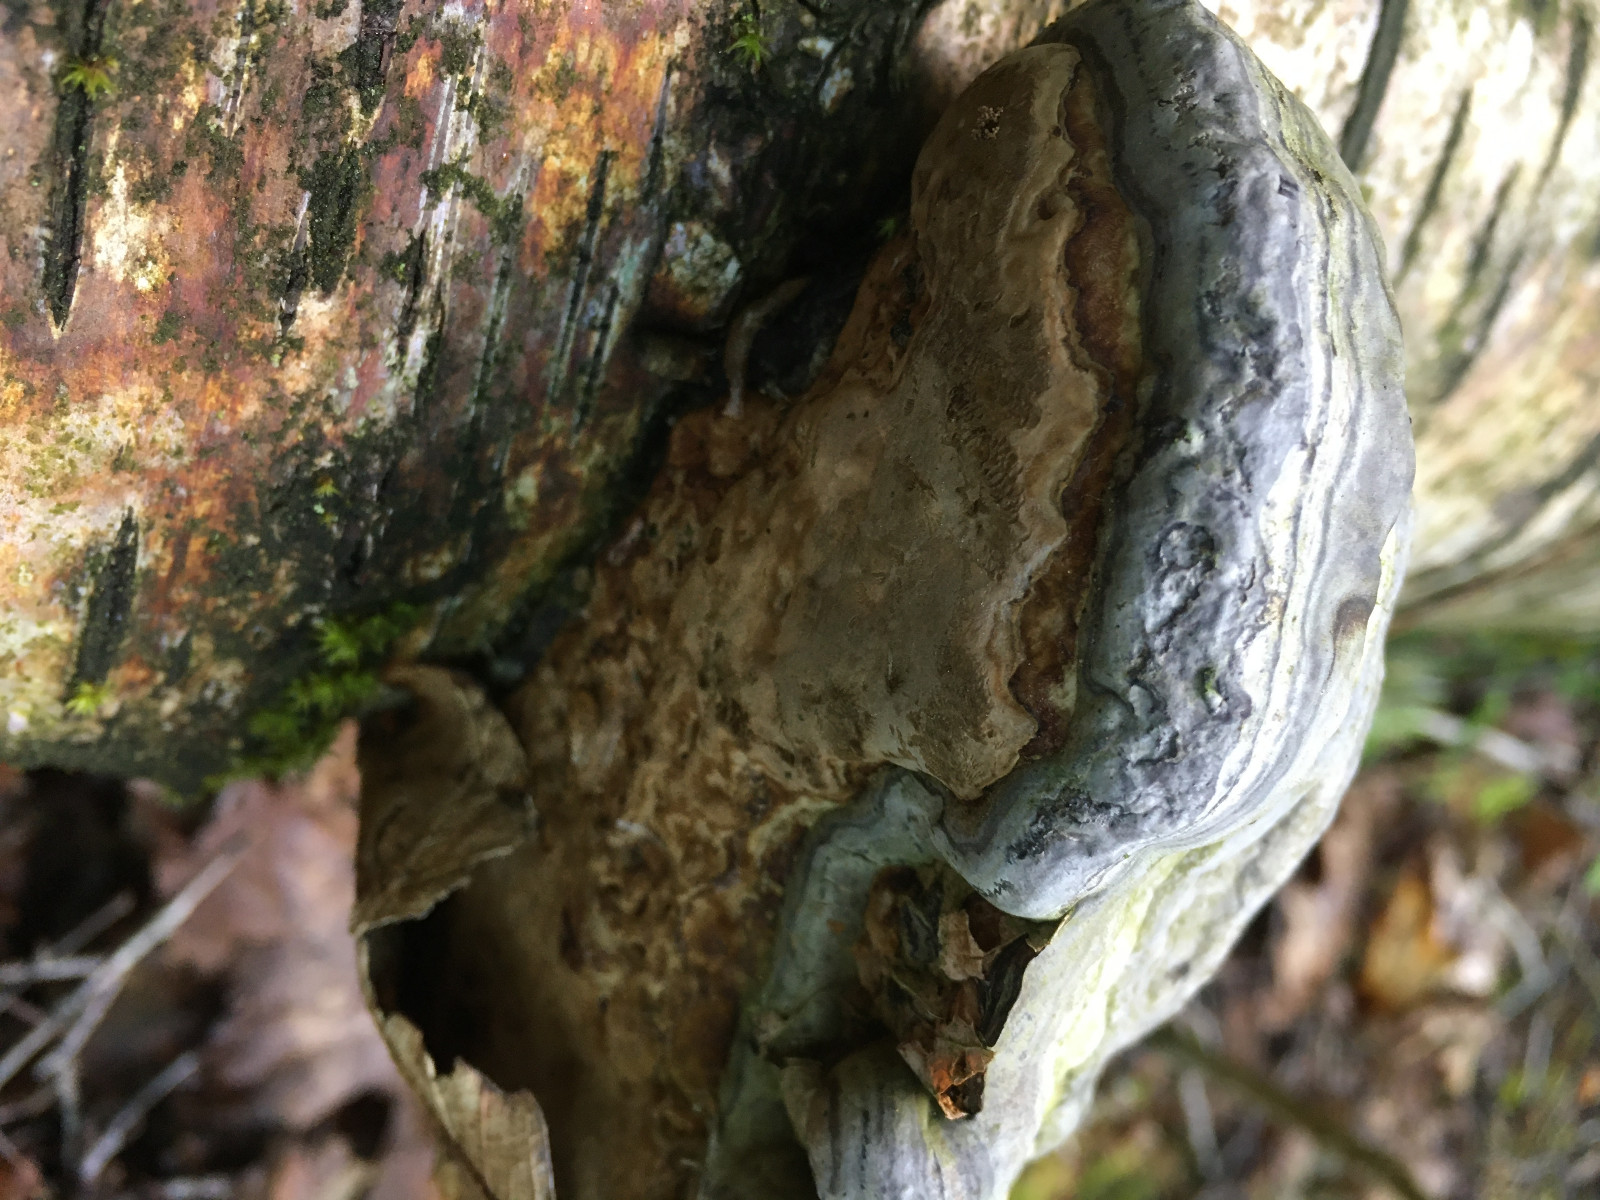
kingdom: Fungi
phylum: Basidiomycota
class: Agaricomycetes
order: Polyporales
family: Polyporaceae
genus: Fomes
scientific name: Fomes fomentarius
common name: tøndersvamp
